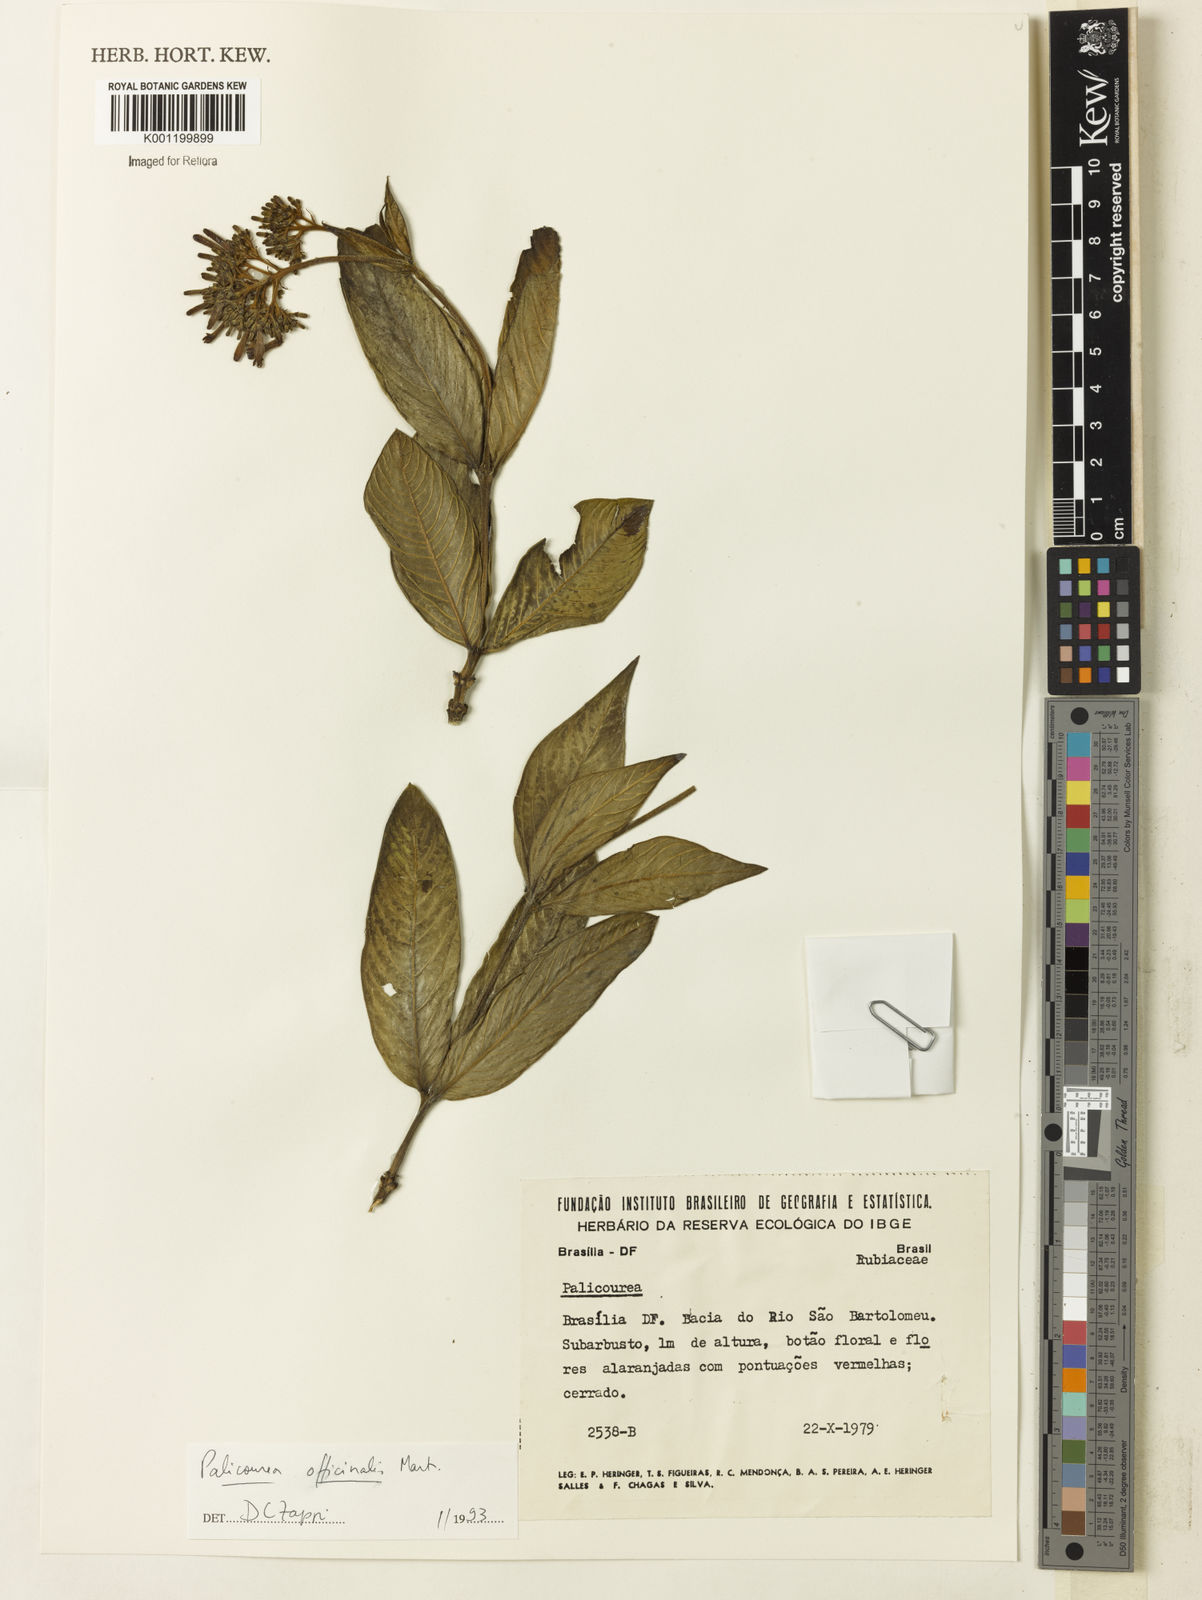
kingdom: Plantae
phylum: Tracheophyta
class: Magnoliopsida
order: Gentianales
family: Rubiaceae
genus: Palicourea
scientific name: Palicourea
